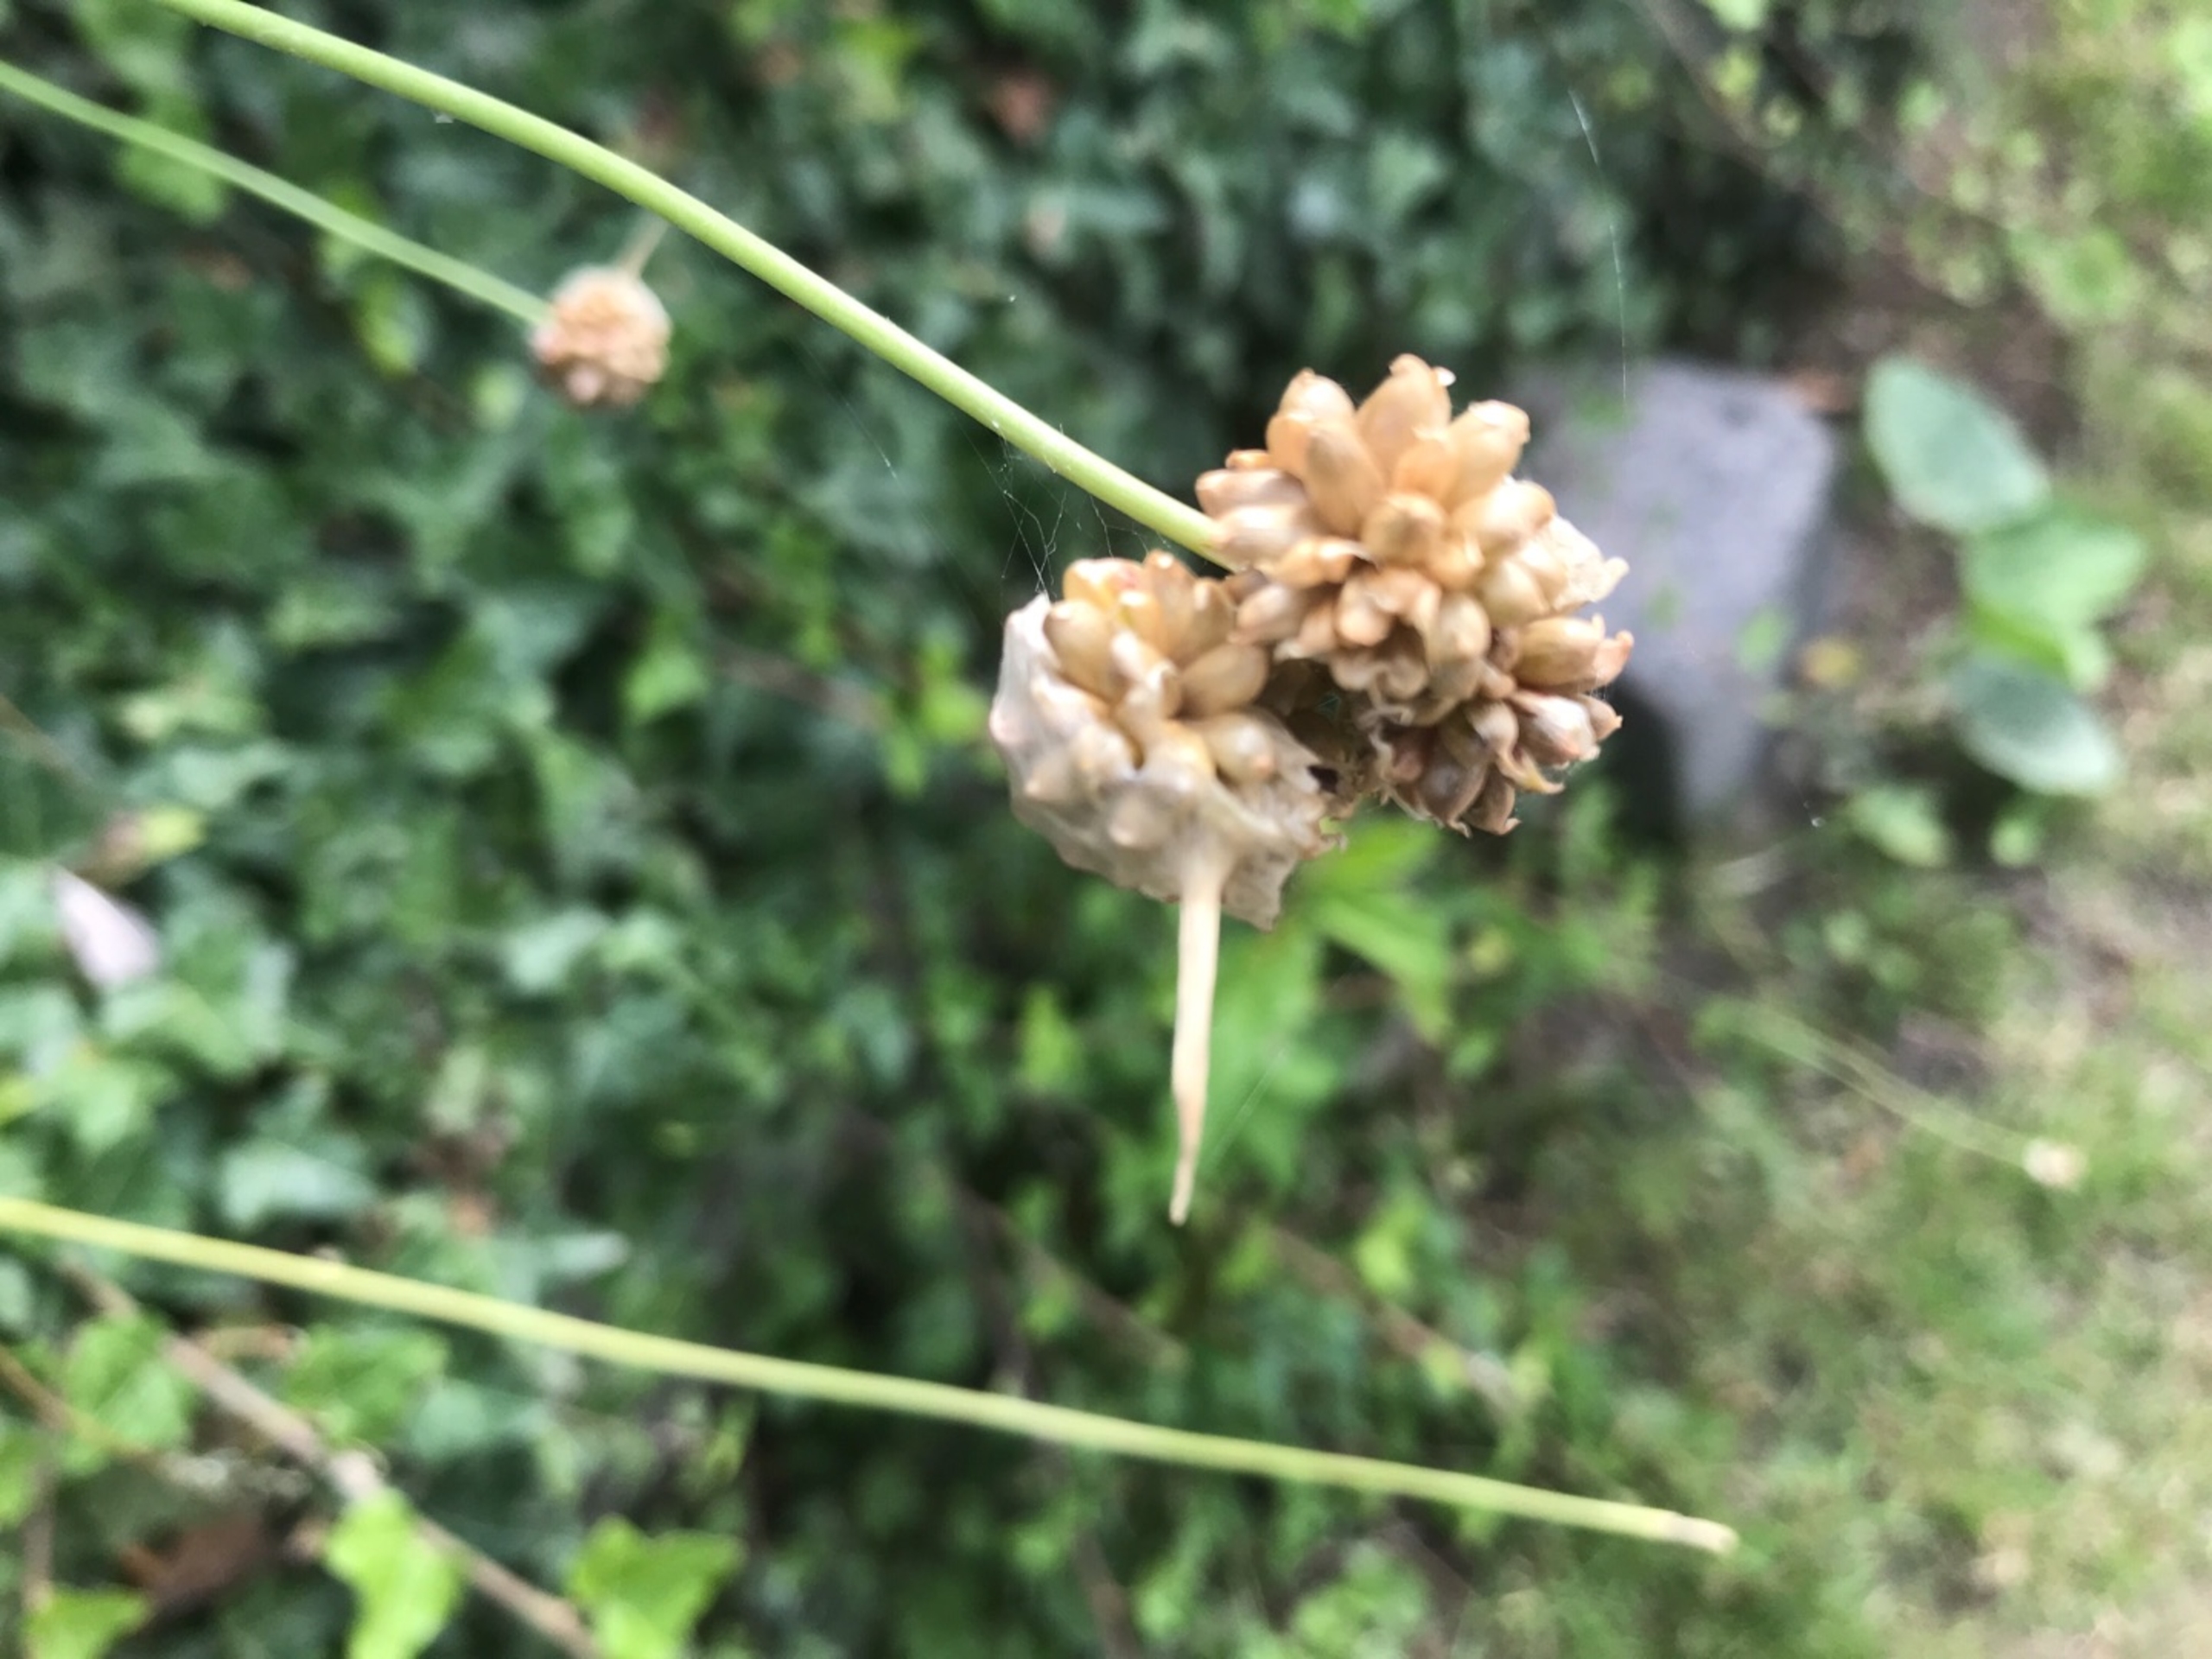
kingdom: Plantae
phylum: Tracheophyta
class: Liliopsida
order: Asparagales
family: Amaryllidaceae
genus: Allium
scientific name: Allium vineale
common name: Sand-løg
